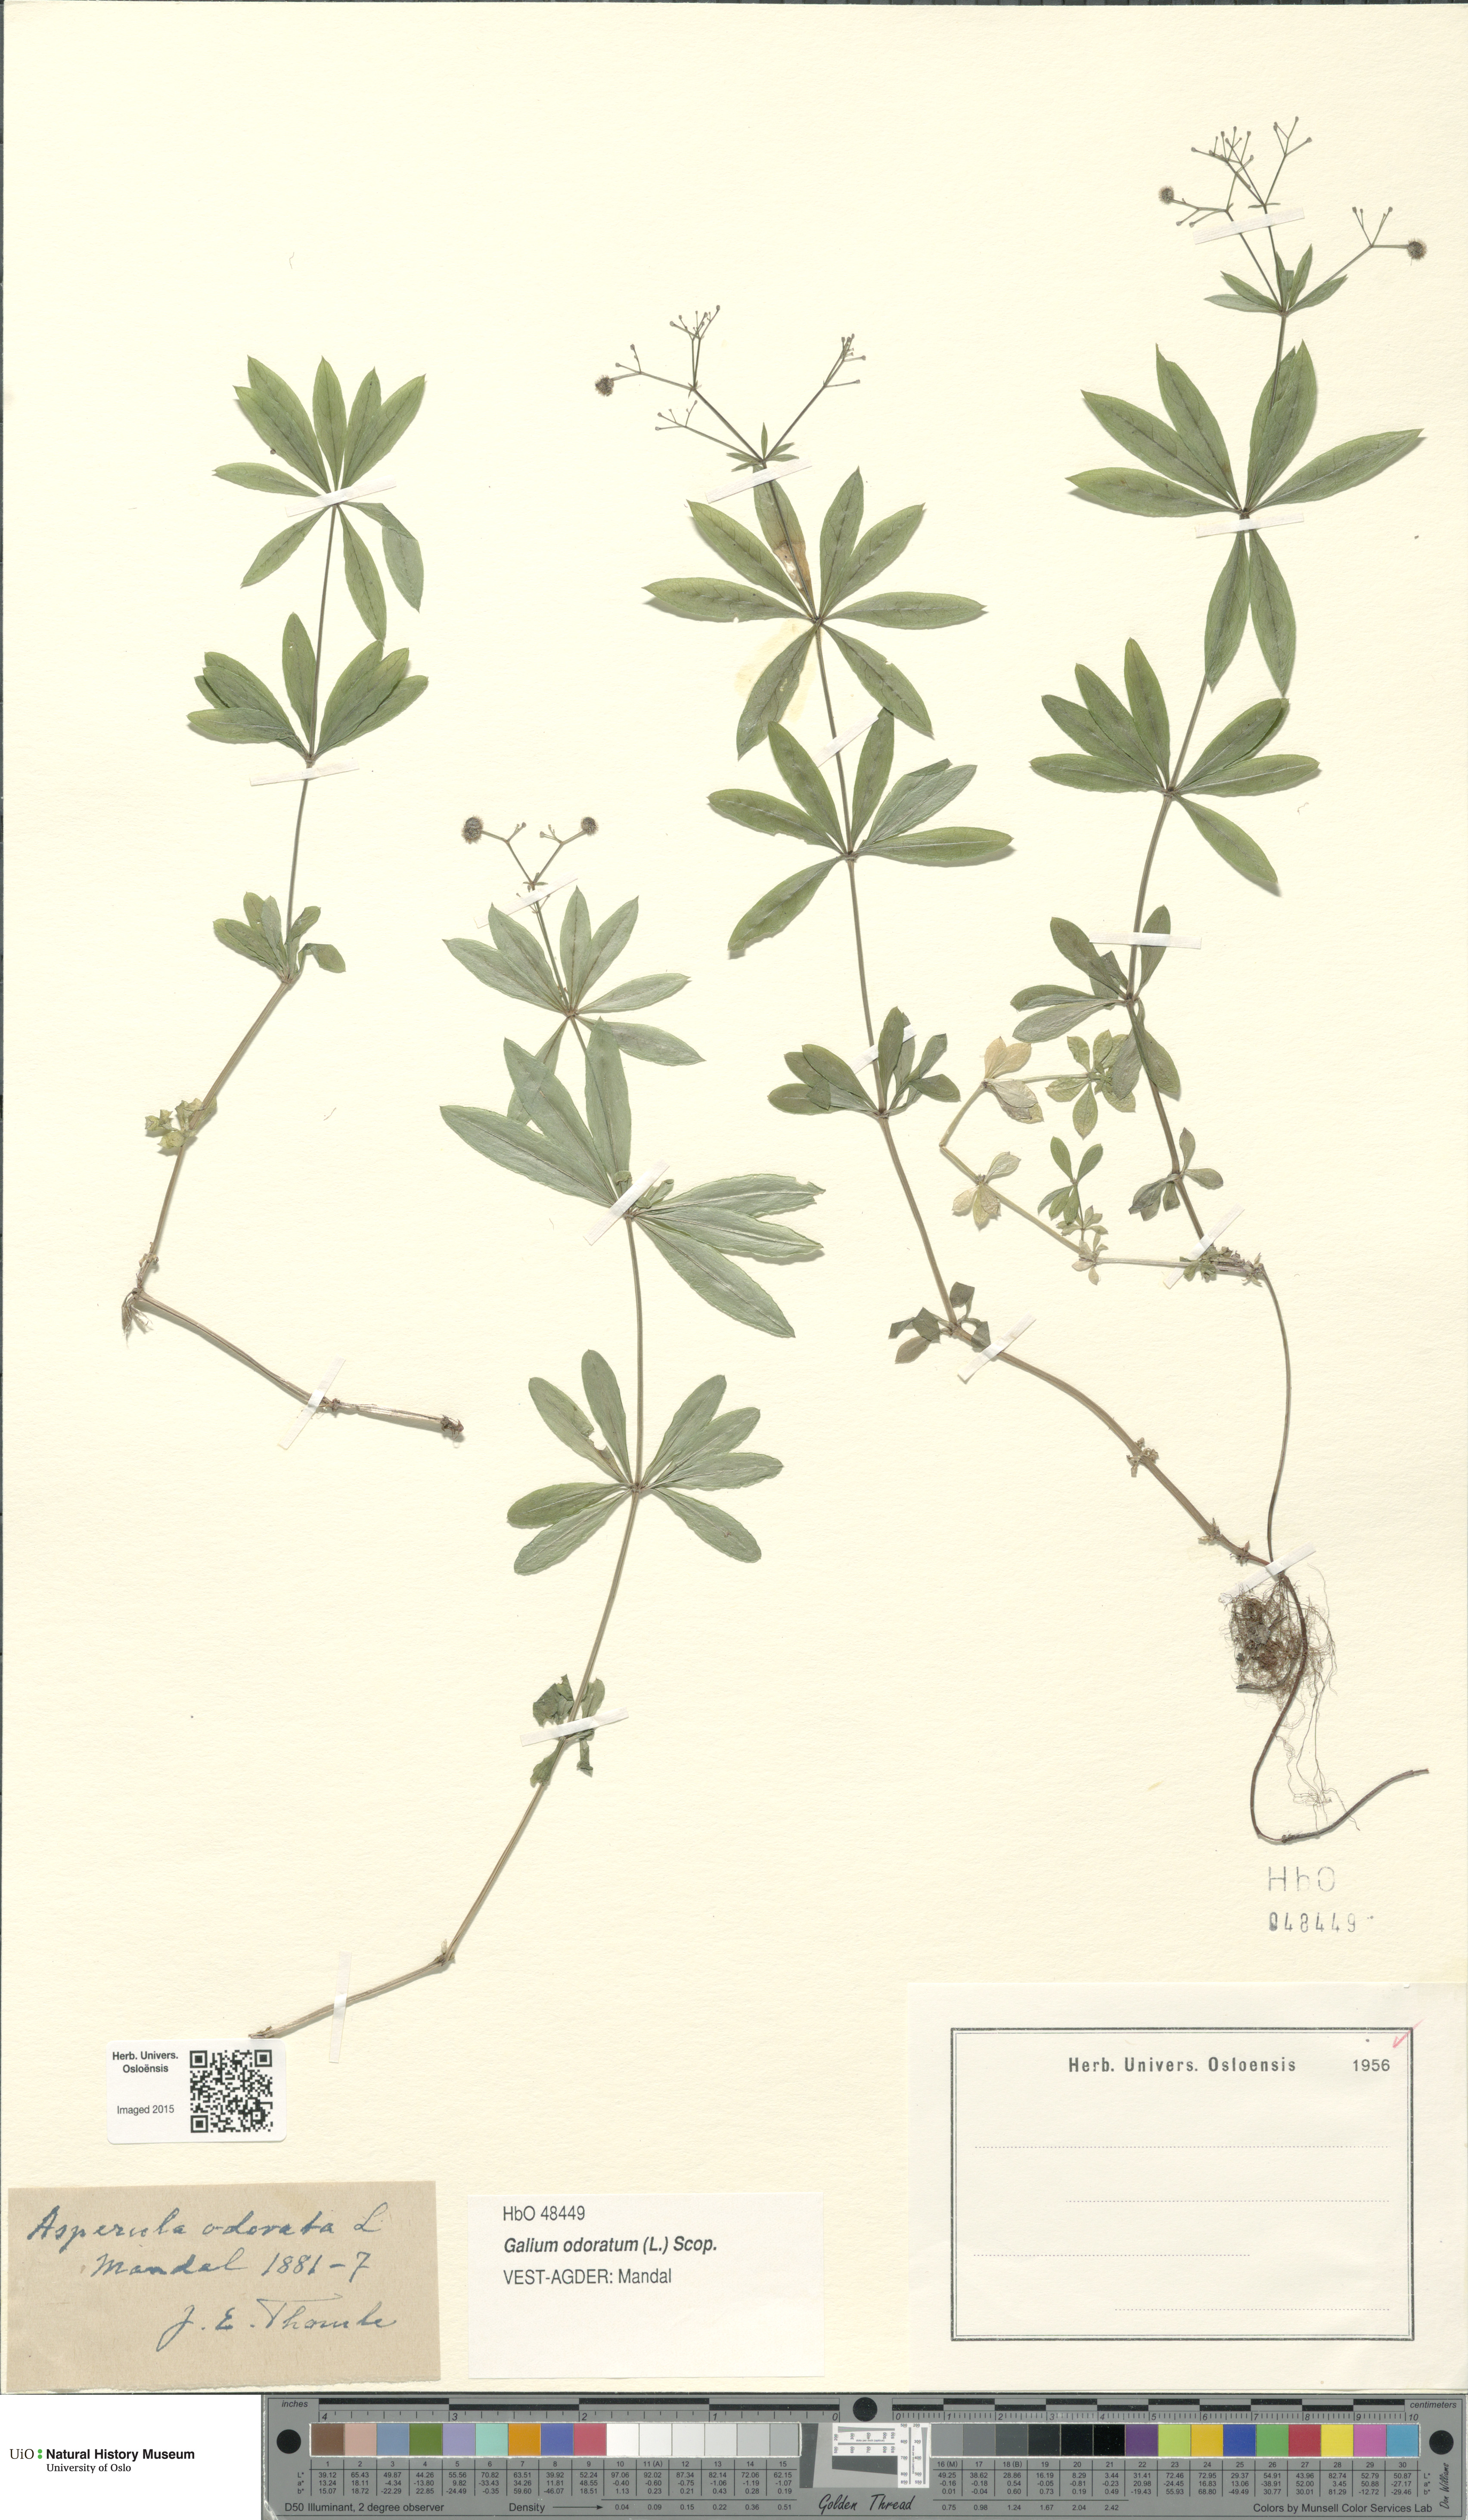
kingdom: Plantae
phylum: Tracheophyta
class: Magnoliopsida
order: Gentianales
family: Rubiaceae
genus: Galium
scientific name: Galium odoratum
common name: Sweet woodruff
